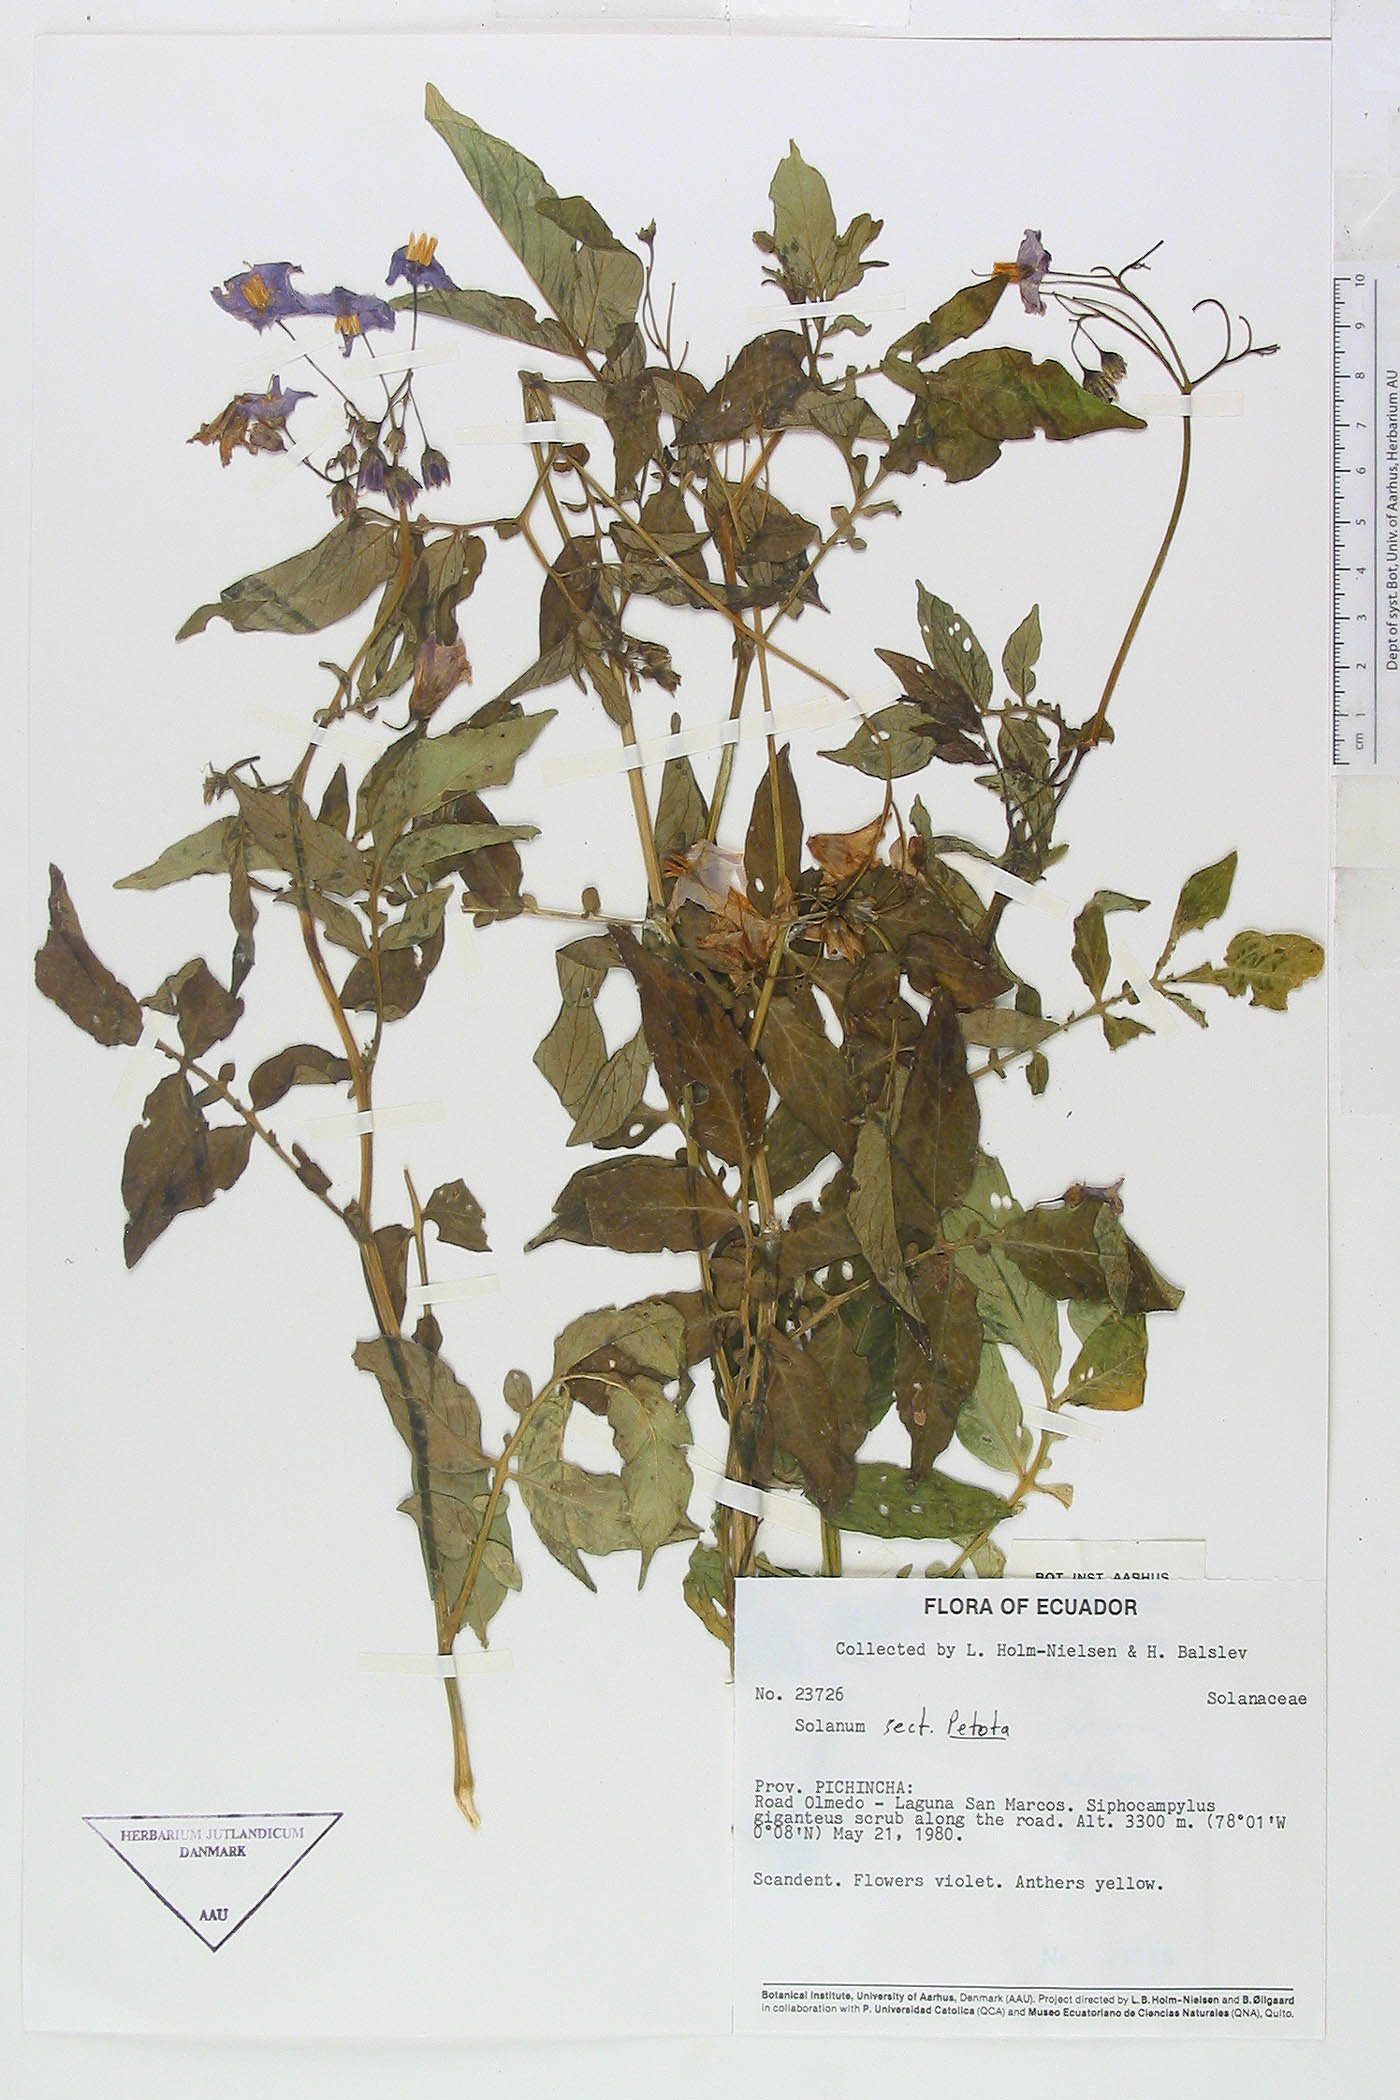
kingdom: Plantae
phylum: Tracheophyta
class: Magnoliopsida
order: Solanales
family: Solanaceae
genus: Solanum
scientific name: Solanum andreanum
